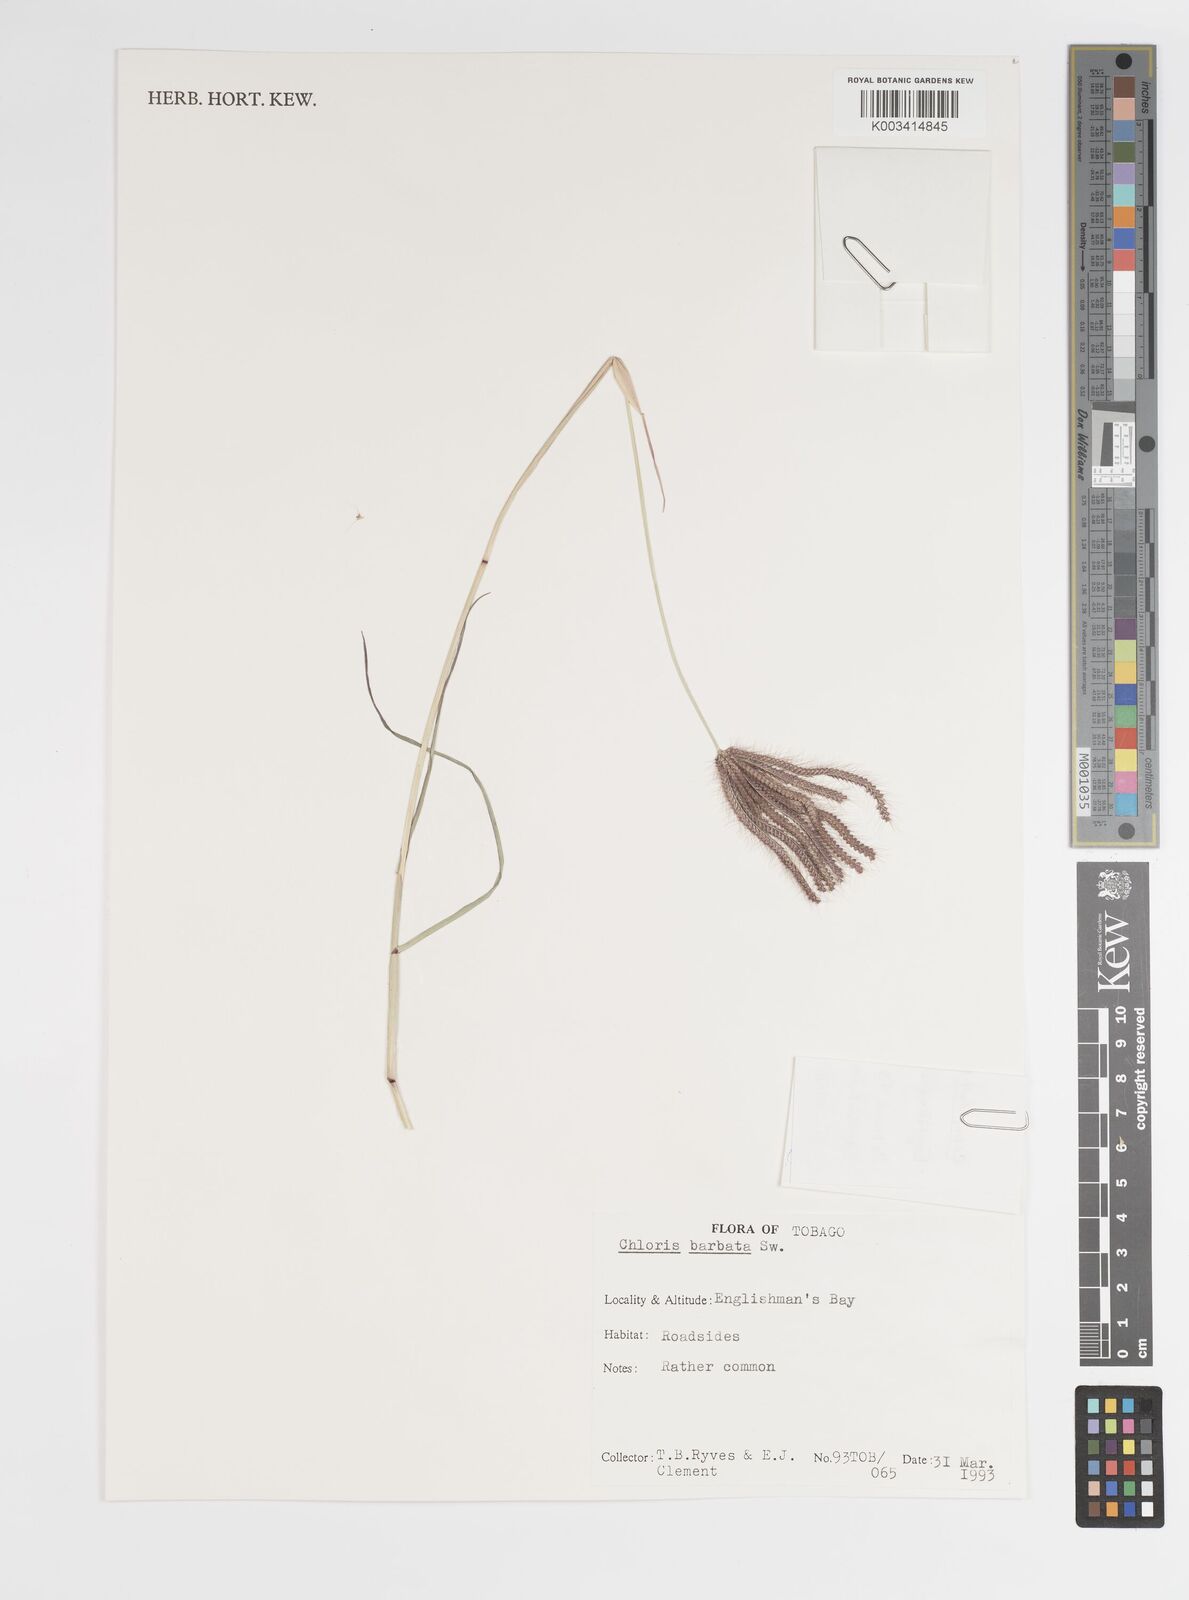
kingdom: Plantae
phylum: Tracheophyta
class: Liliopsida
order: Poales
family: Poaceae
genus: Chloris
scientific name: Chloris barbata
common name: Swollen fingergrass
